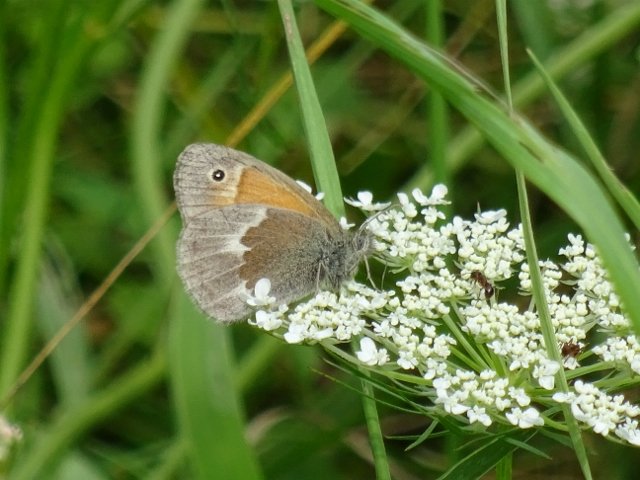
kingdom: Animalia
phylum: Arthropoda
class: Insecta
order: Lepidoptera
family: Nymphalidae
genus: Coenonympha
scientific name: Coenonympha tullia
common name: Large Heath
